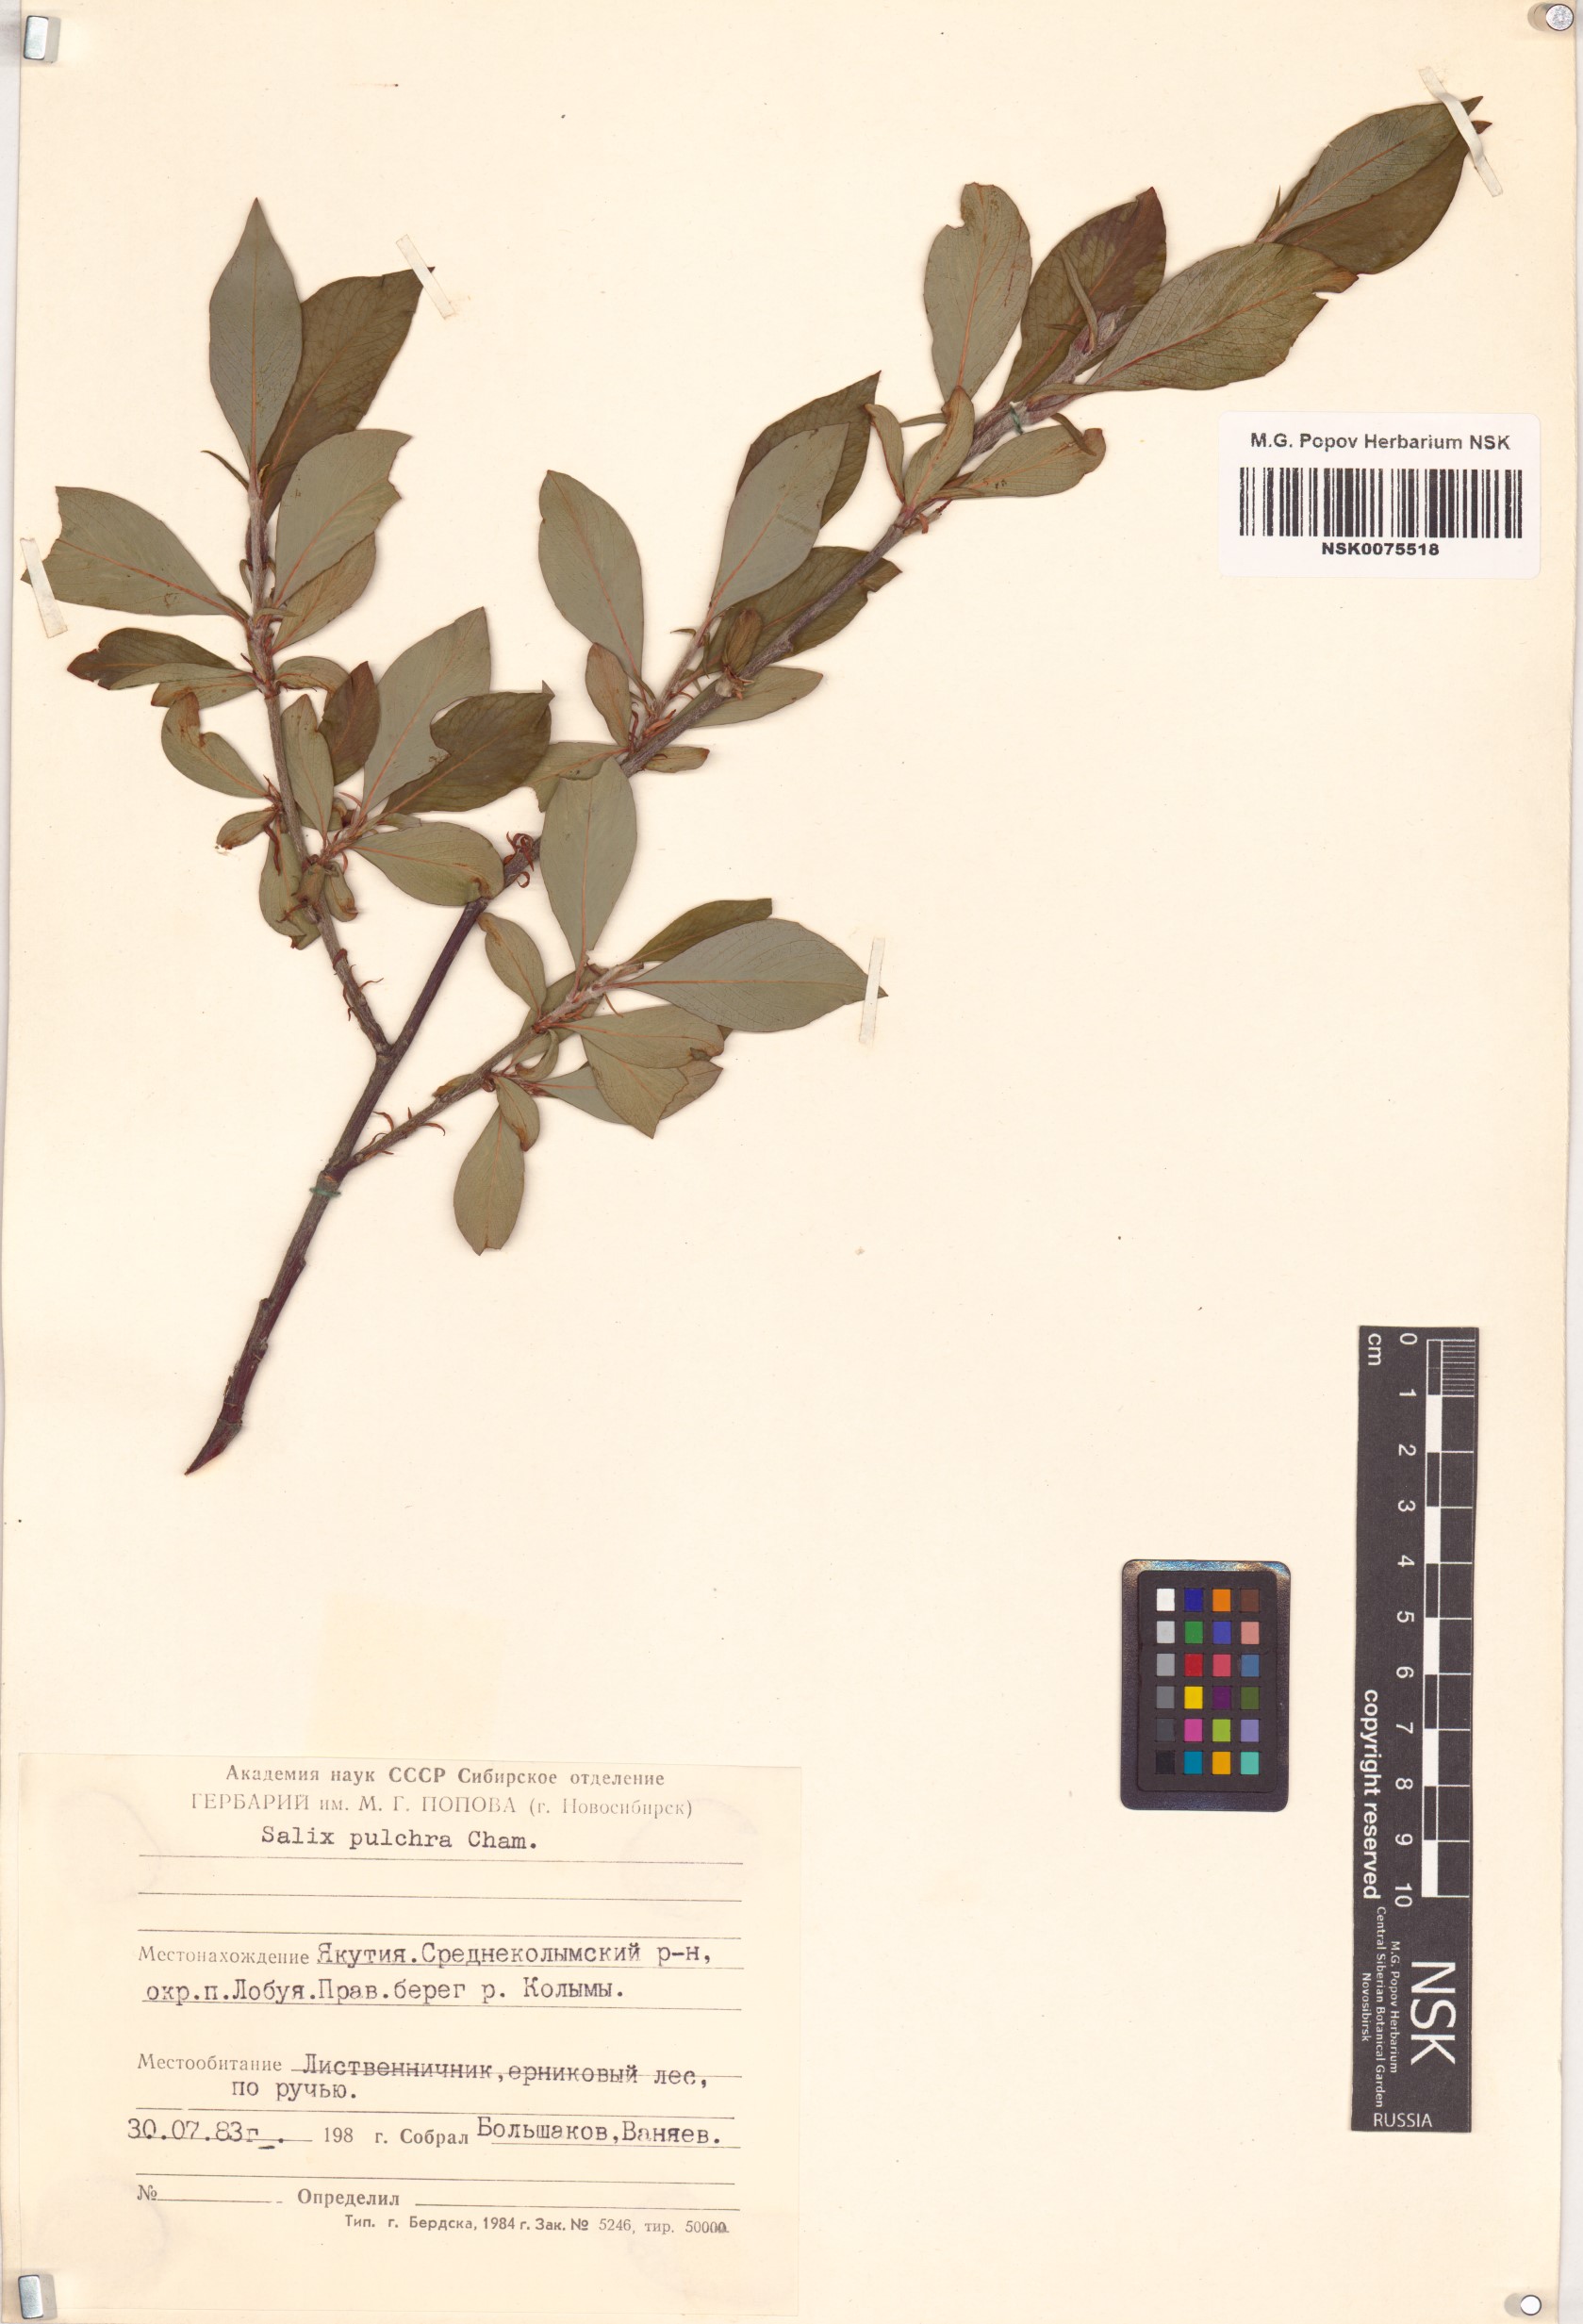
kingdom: Plantae
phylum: Tracheophyta
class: Magnoliopsida
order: Malpighiales
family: Salicaceae
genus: Salix
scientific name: Salix pulchra
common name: Diamond-leaved willow
